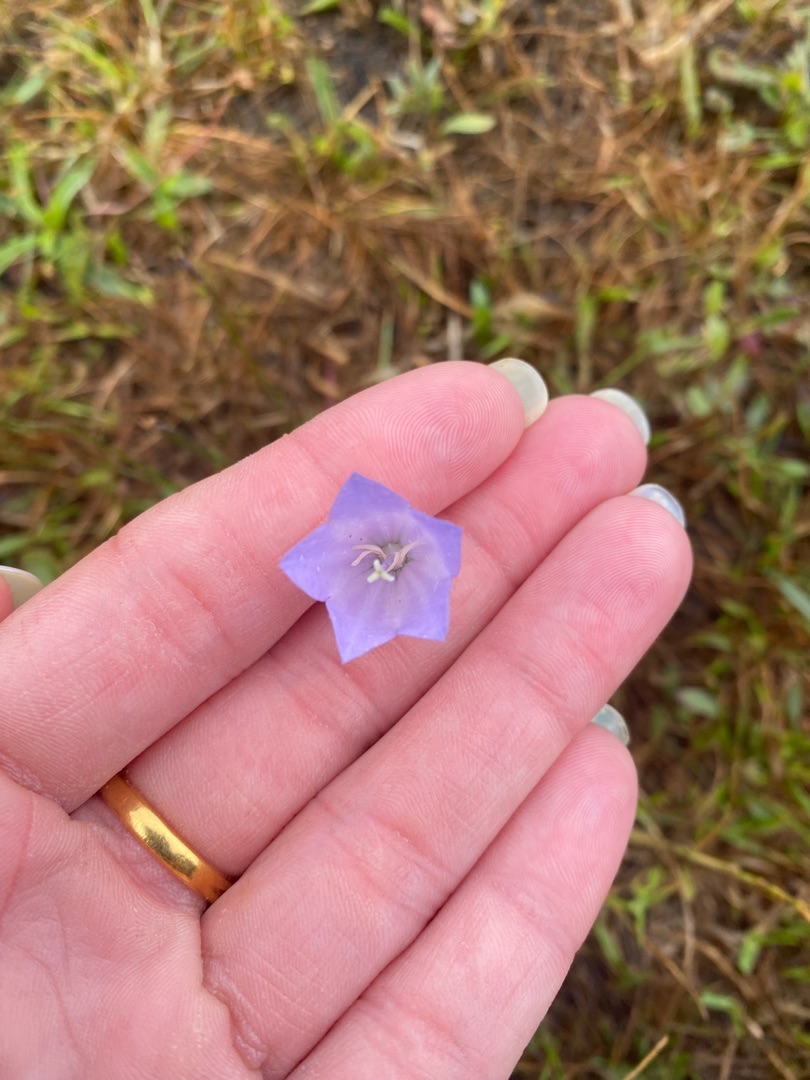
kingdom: Plantae
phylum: Tracheophyta
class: Magnoliopsida
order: Asterales
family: Campanulaceae
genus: Campanula
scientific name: Campanula rotundifolia
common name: Liden klokke
